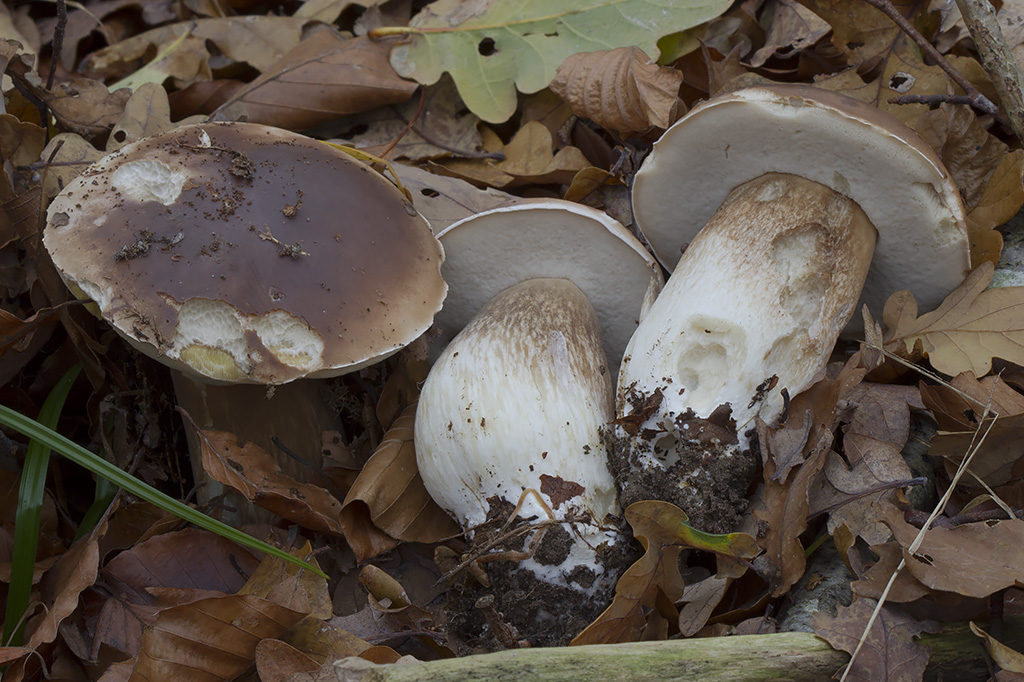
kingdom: Fungi
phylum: Basidiomycota
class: Agaricomycetes
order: Boletales
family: Boletaceae
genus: Boletus
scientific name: Boletus edulis
